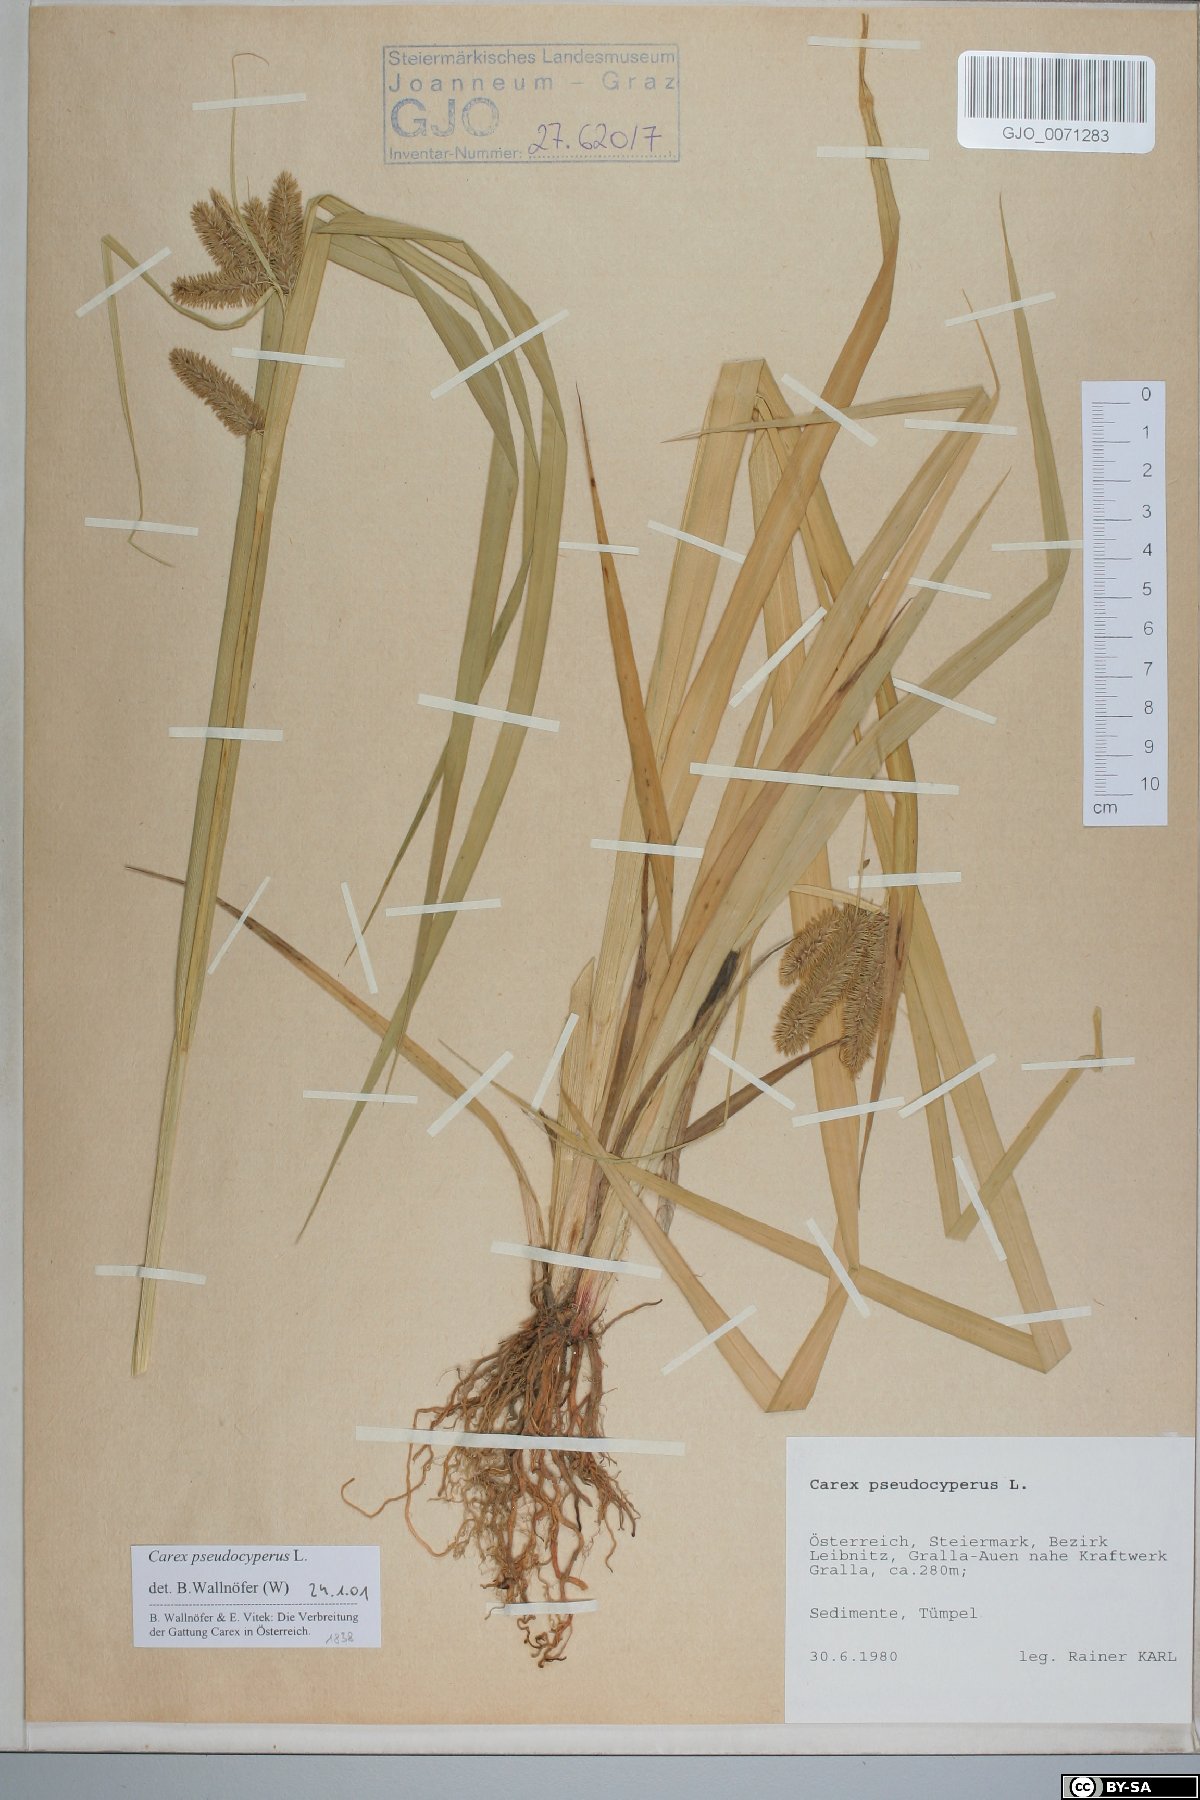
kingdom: Plantae
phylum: Tracheophyta
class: Liliopsida
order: Poales
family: Cyperaceae
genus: Carex
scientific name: Carex pseudocyperus
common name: Cyperus sedge
